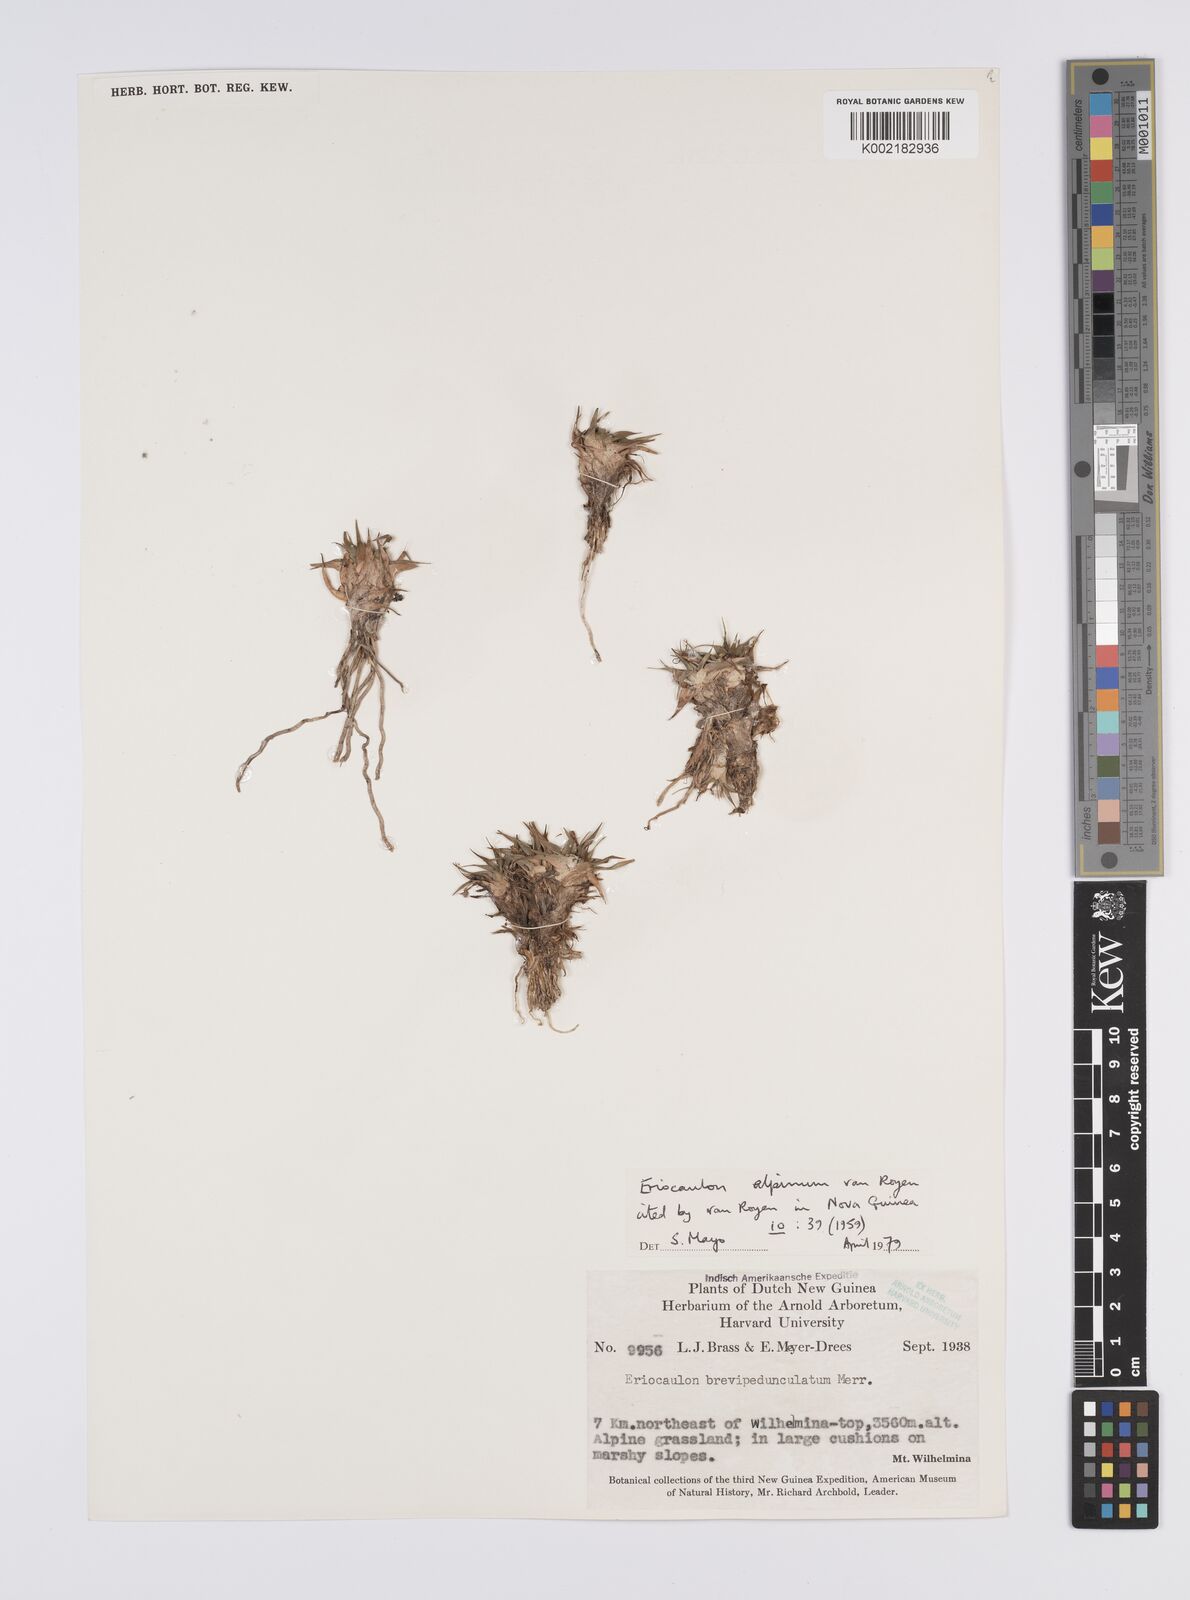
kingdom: Plantae
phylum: Tracheophyta
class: Liliopsida
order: Poales
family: Eriocaulaceae
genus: Eriocaulon
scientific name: Eriocaulon alpinum
